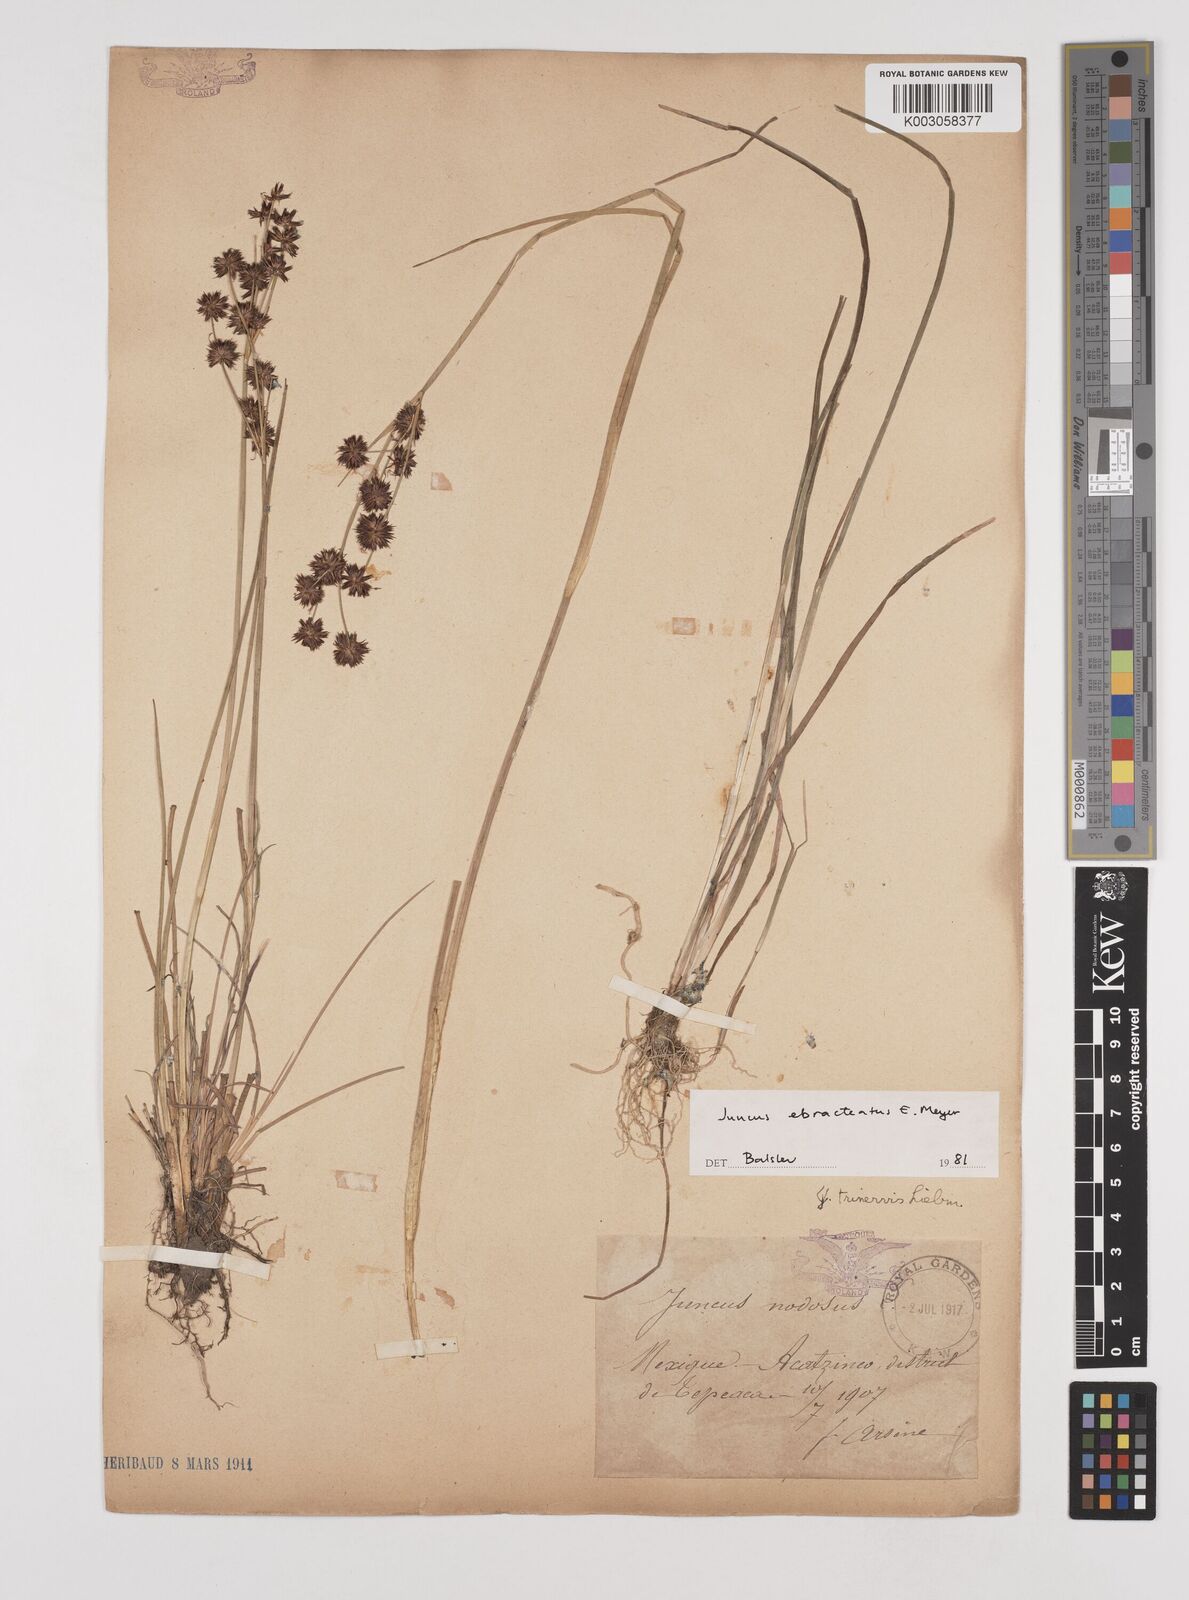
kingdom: Plantae
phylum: Tracheophyta
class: Liliopsida
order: Poales
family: Juncaceae
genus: Juncus
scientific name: Juncus ebracteatus
